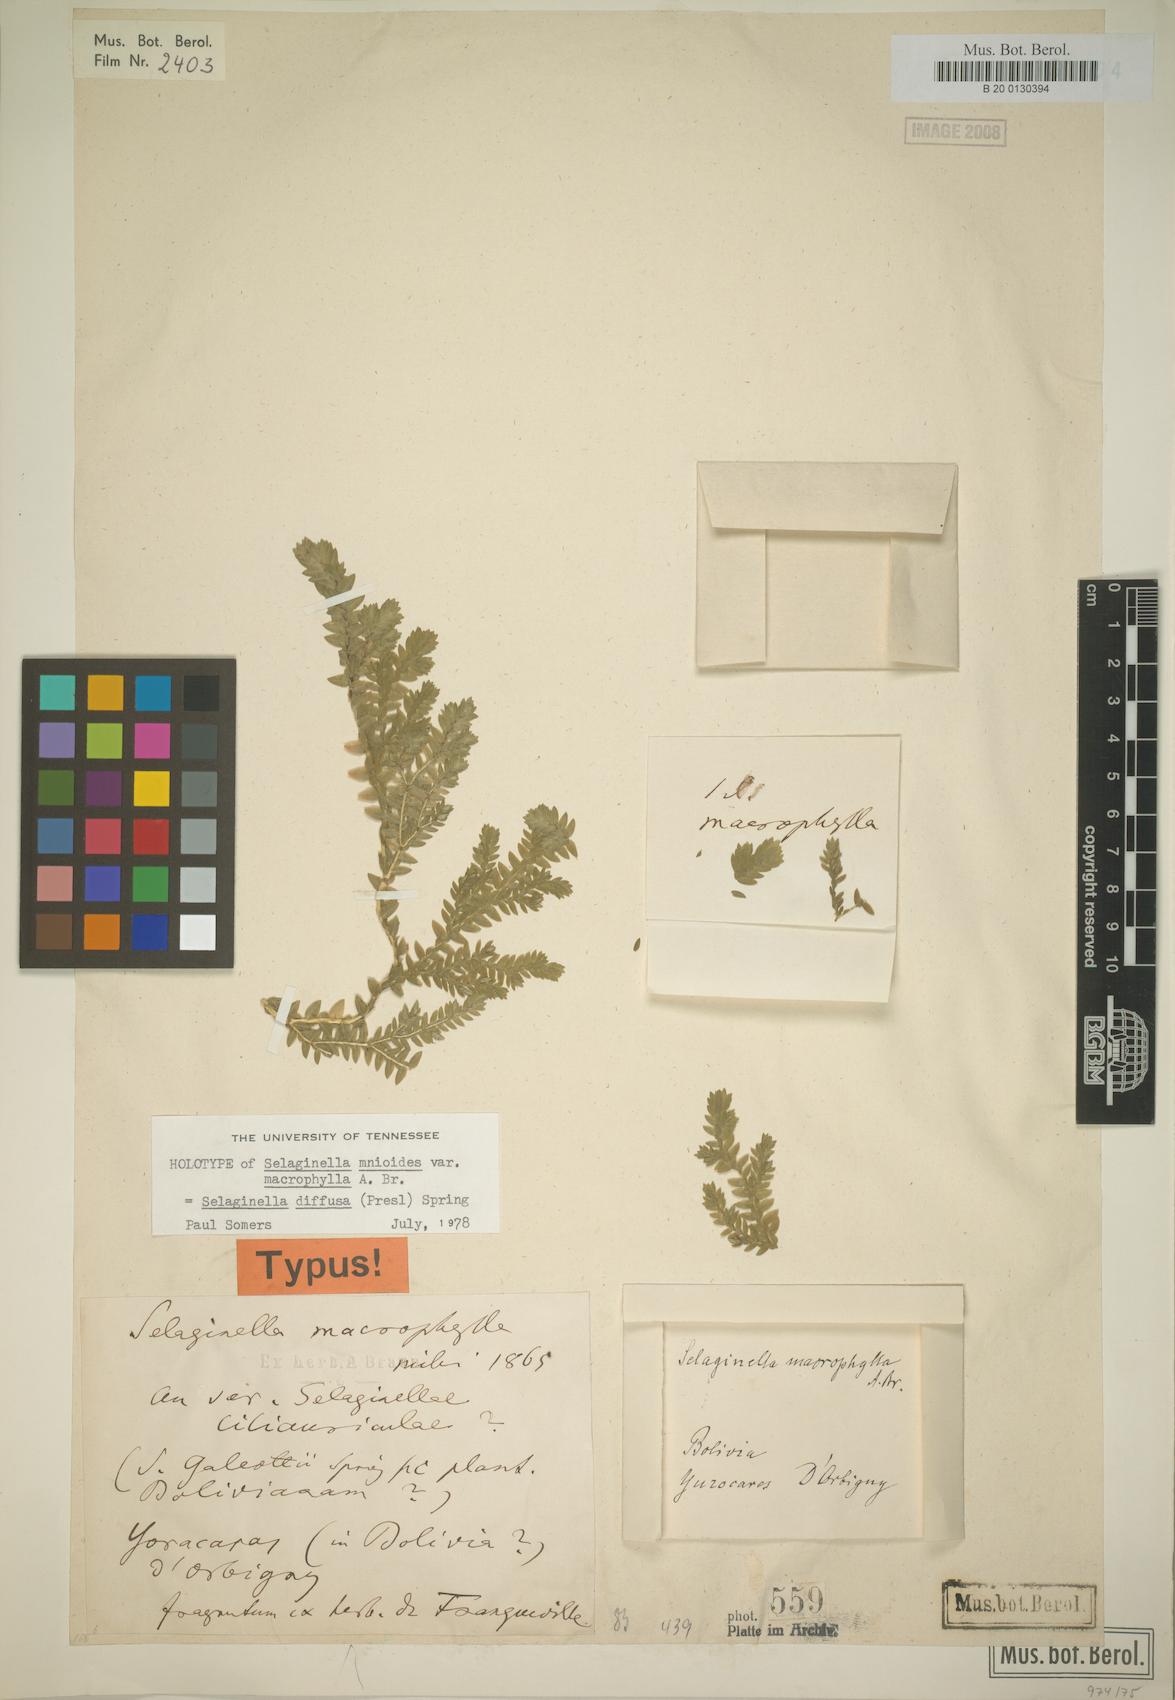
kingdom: Plantae
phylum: Tracheophyta
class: Lycopodiopsida
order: Selaginellales
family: Selaginellaceae
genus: Selaginella
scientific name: Selaginella diffusa
